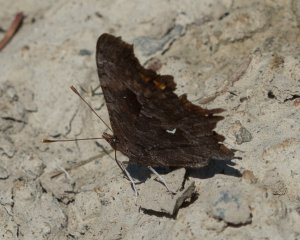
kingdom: Animalia
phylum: Arthropoda
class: Insecta
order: Lepidoptera
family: Nymphalidae
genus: Polygonia
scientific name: Polygonia oreas
